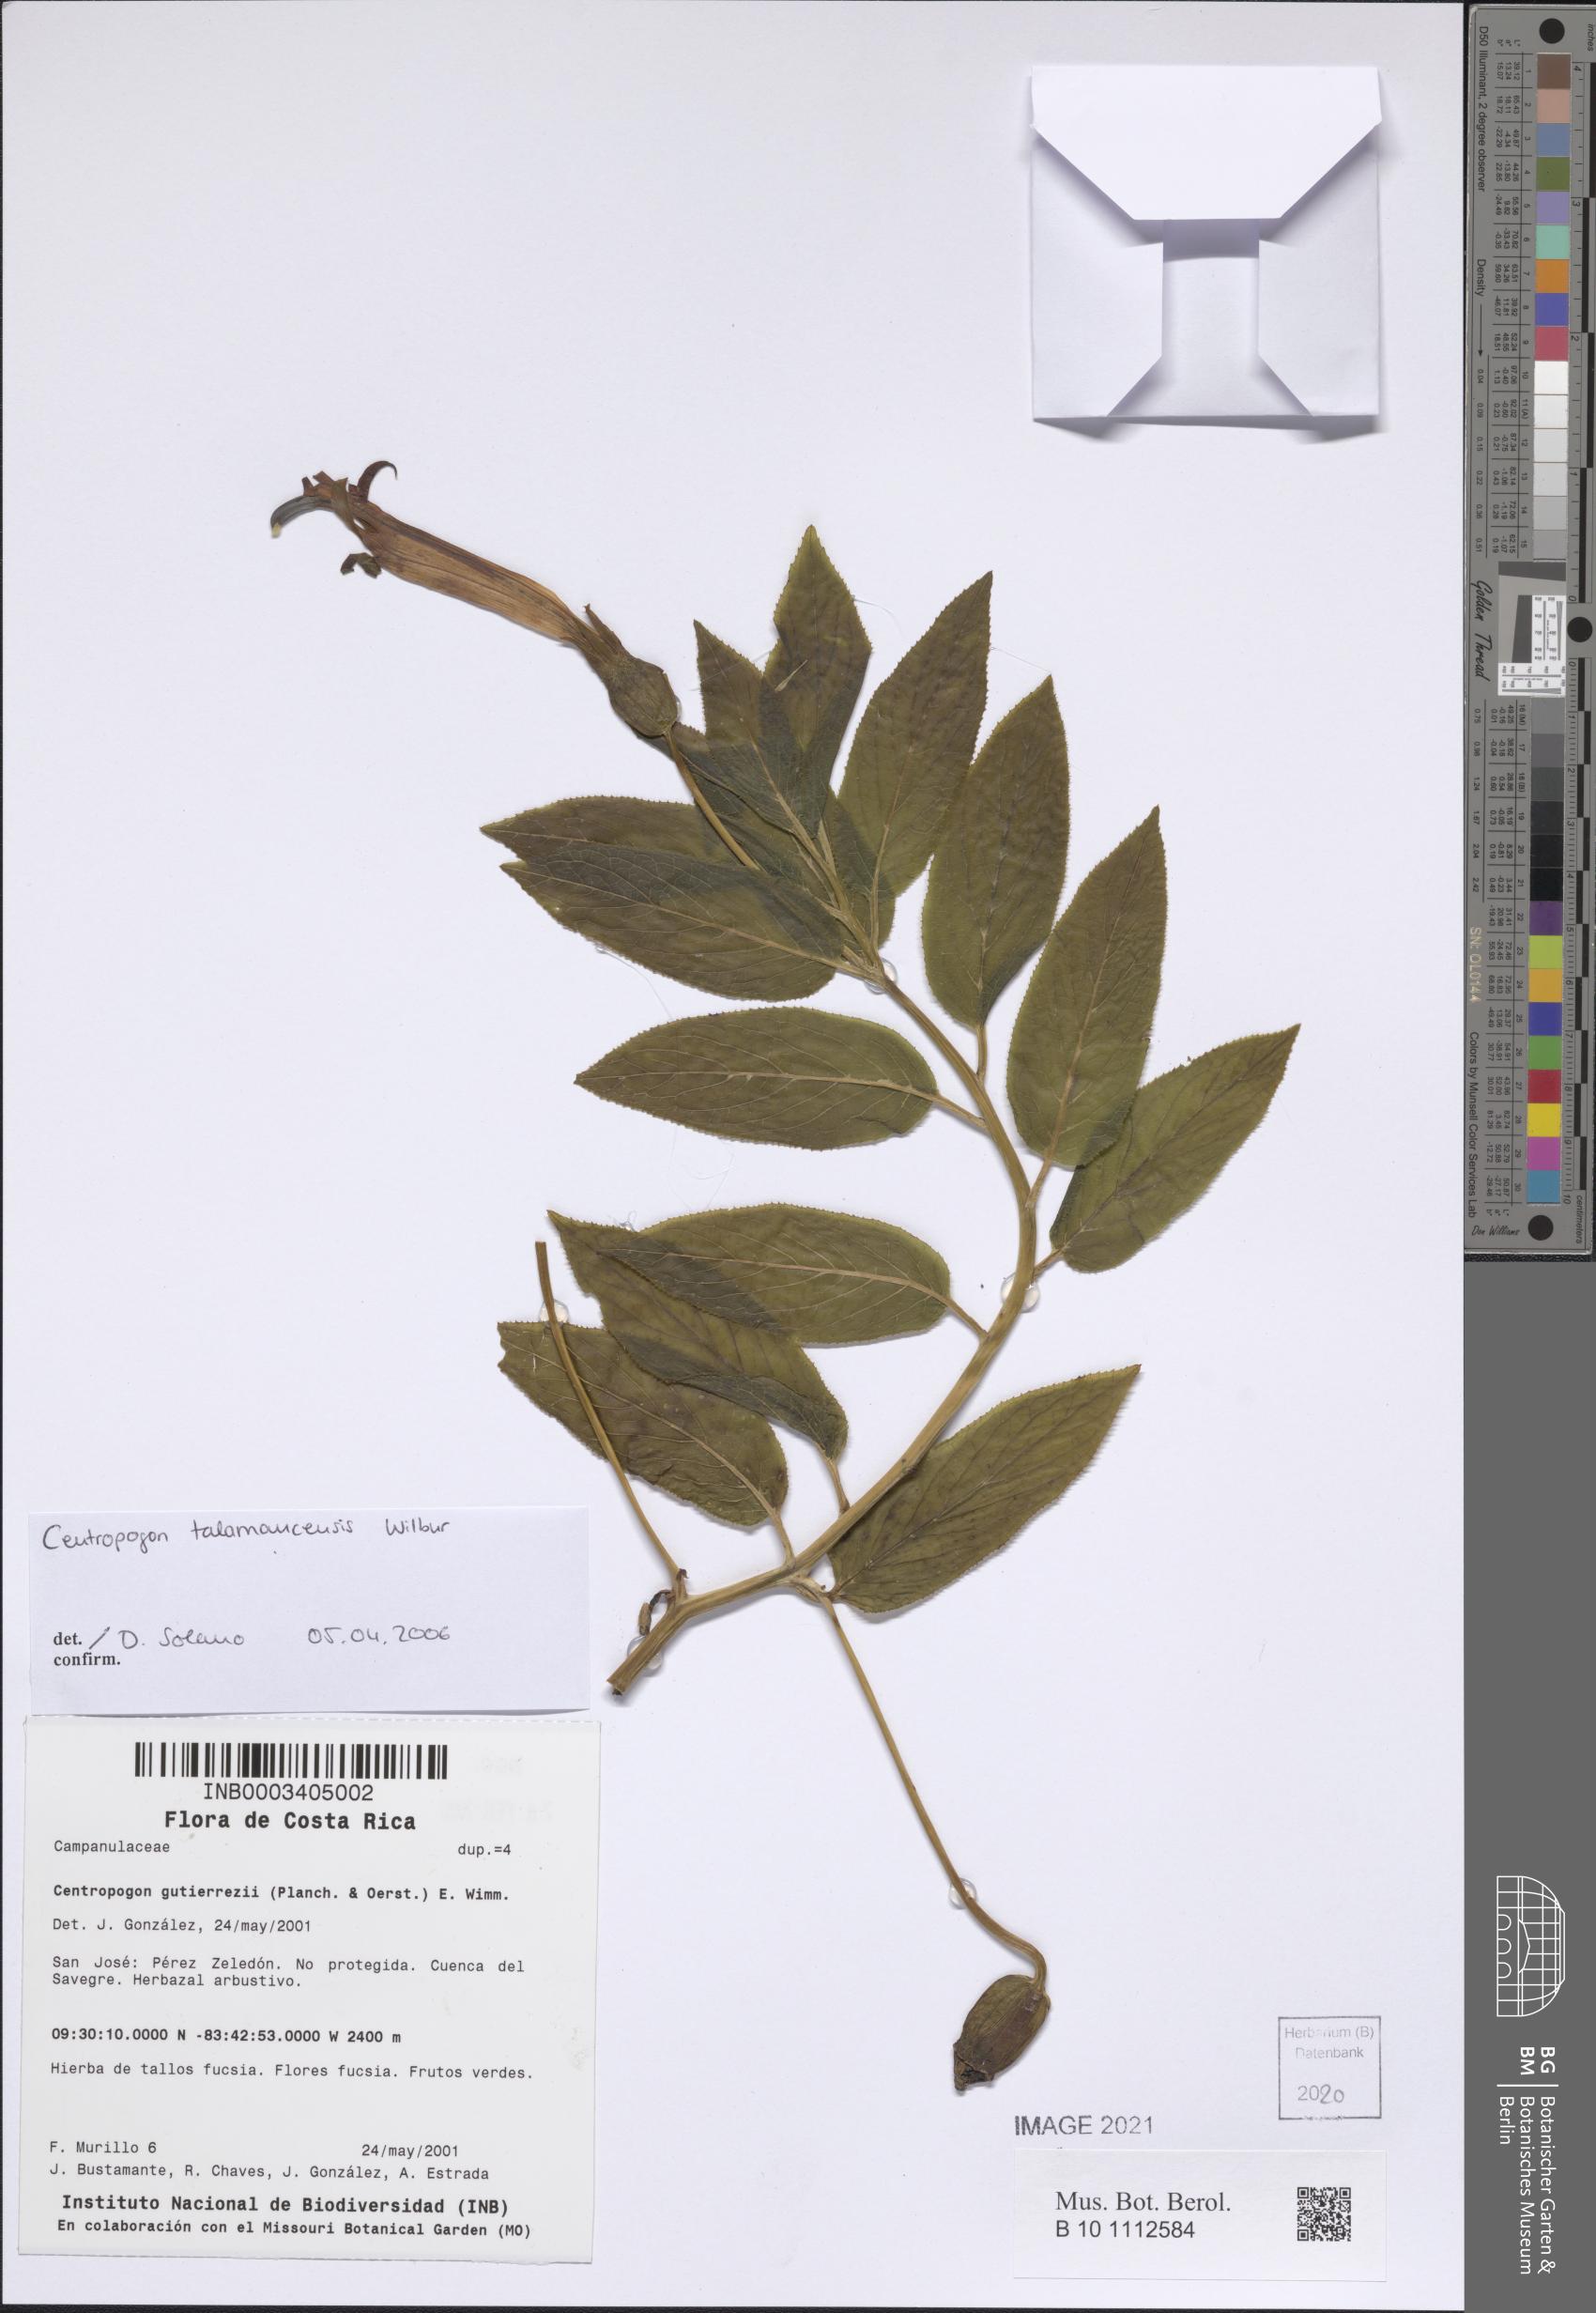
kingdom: Plantae
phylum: Tracheophyta
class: Magnoliopsida
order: Asterales
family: Campanulaceae
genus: Centropogon
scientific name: Centropogon talamancensis
